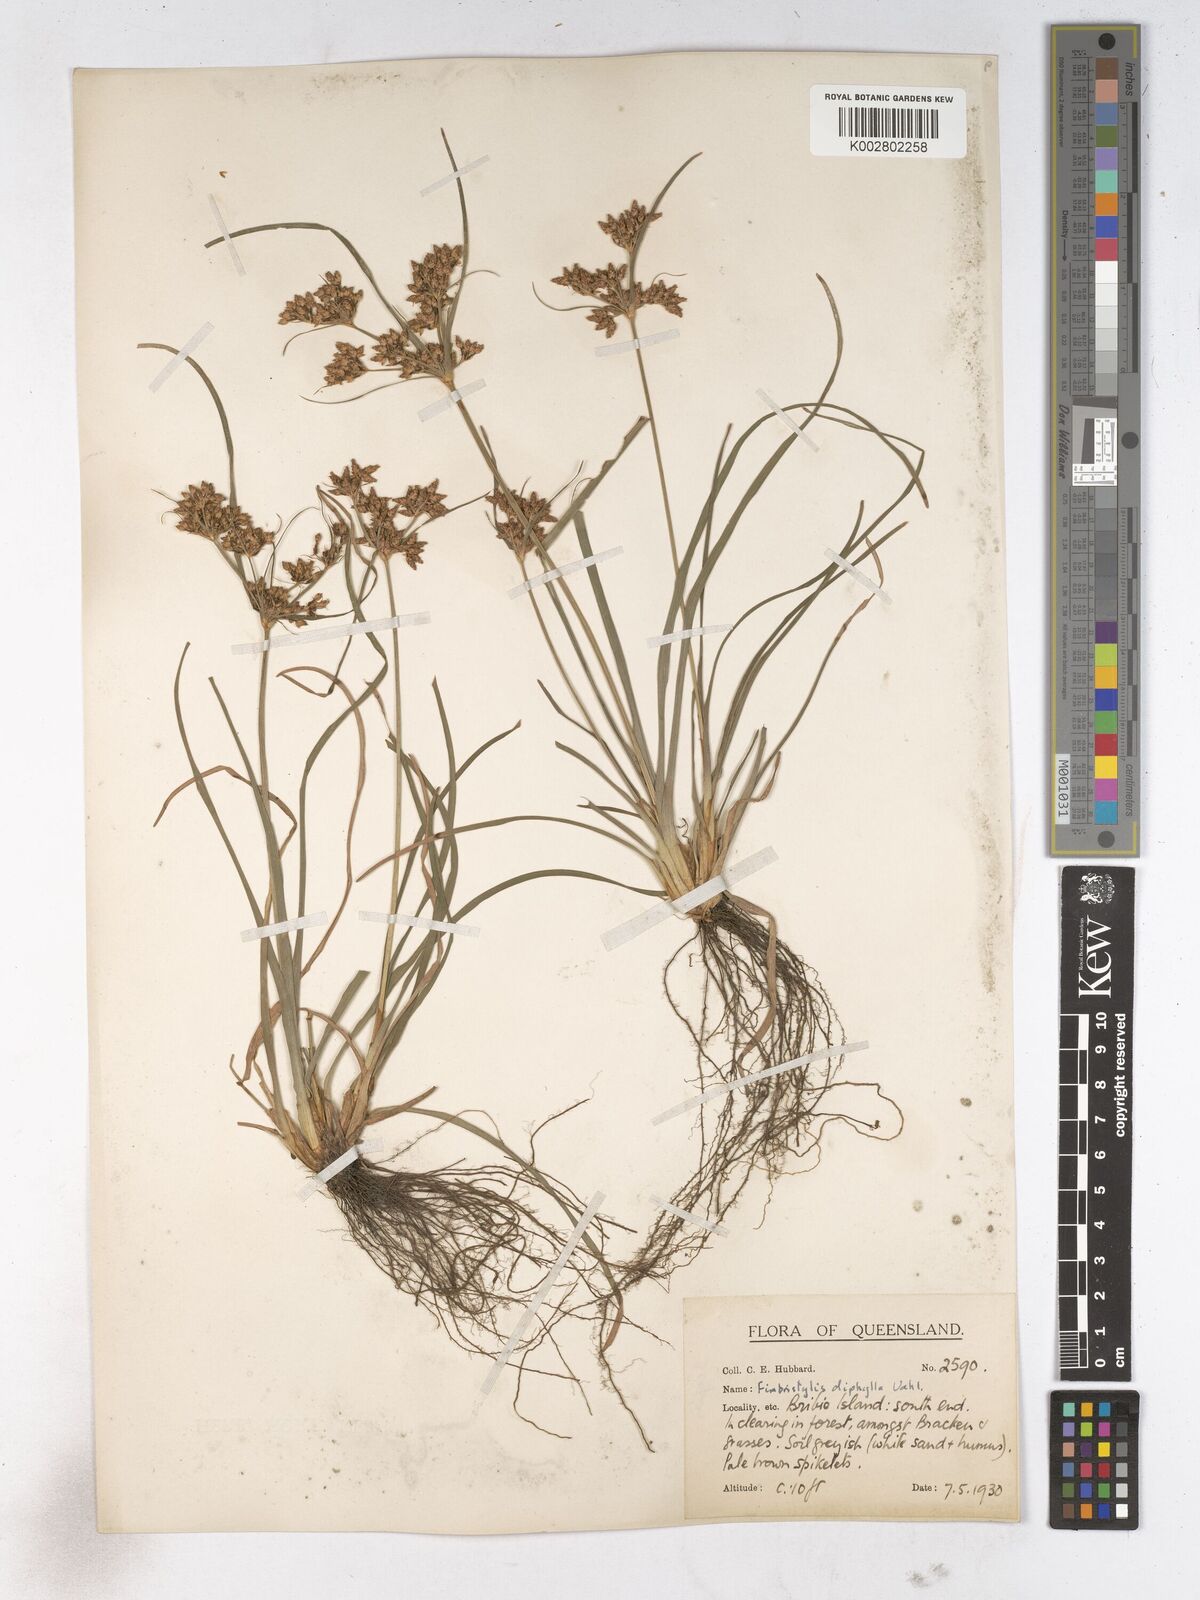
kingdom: Plantae
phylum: Tracheophyta
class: Liliopsida
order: Poales
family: Cyperaceae
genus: Fimbristylis
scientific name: Fimbristylis dichotoma
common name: Forked fimbry
